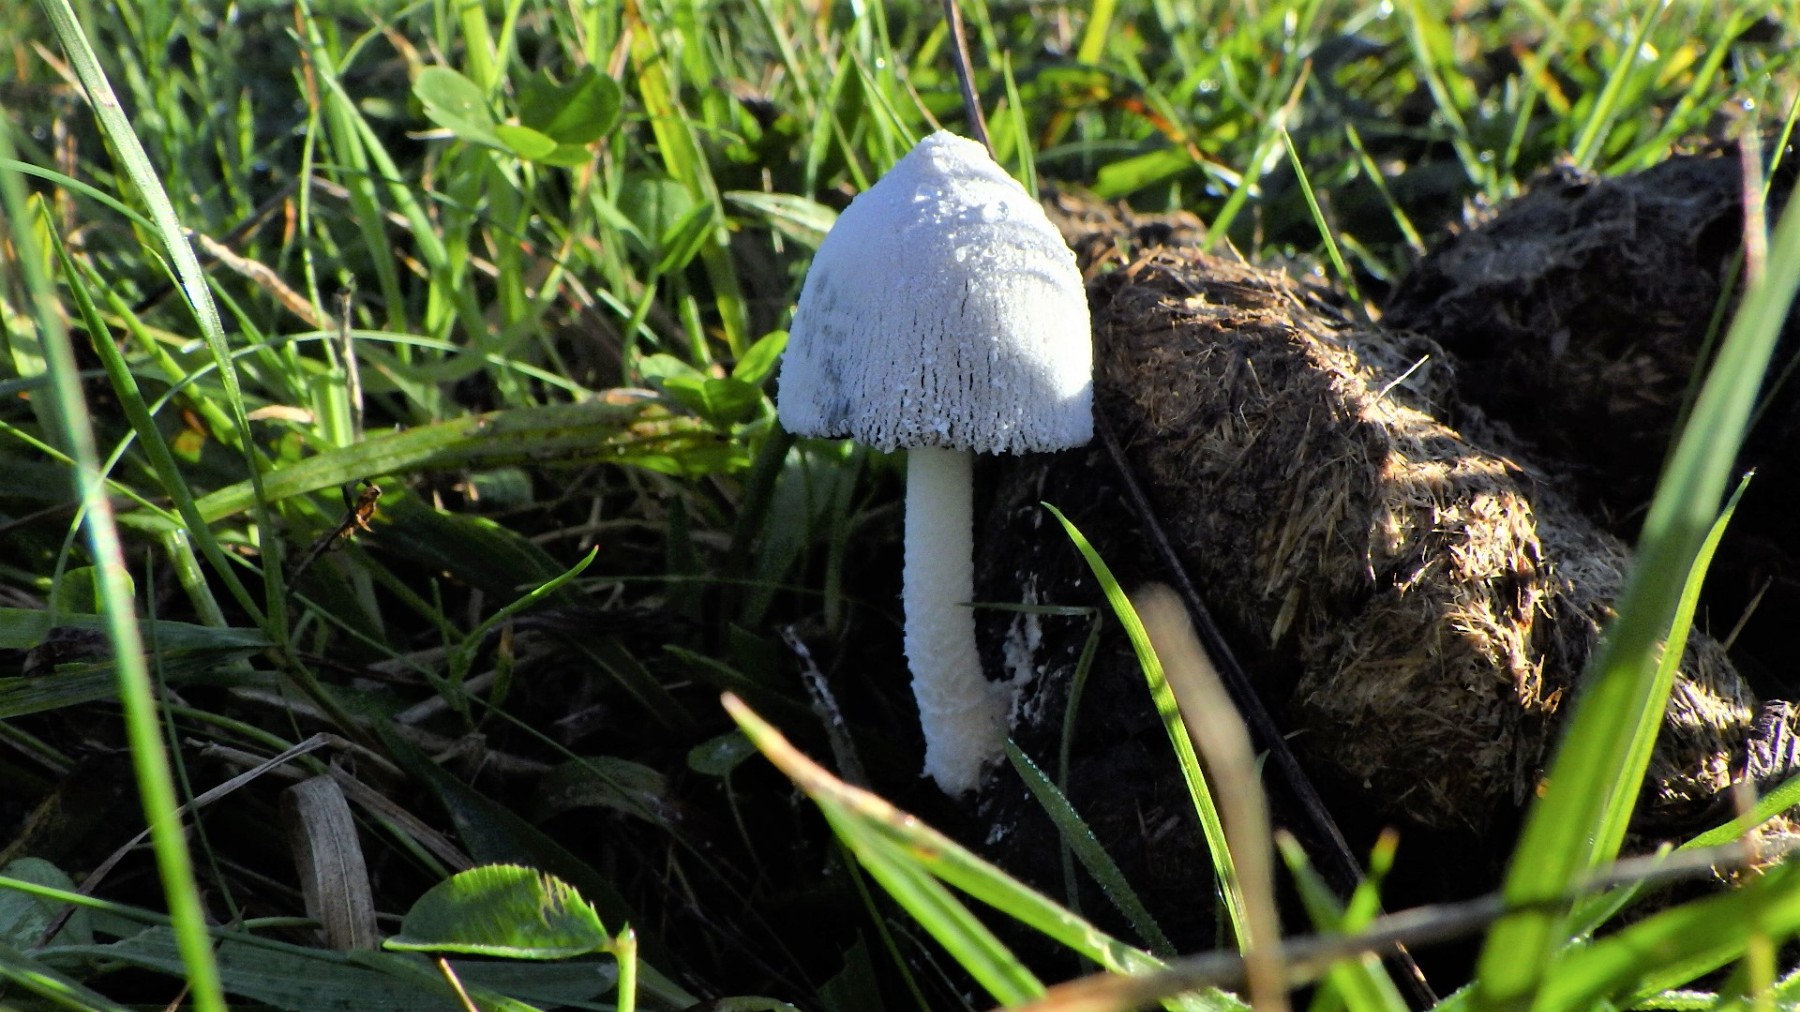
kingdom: Fungi
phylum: Basidiomycota
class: Agaricomycetes
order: Agaricales
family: Psathyrellaceae
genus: Coprinopsis
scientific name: Coprinopsis nivea
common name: snehvid blækhat
